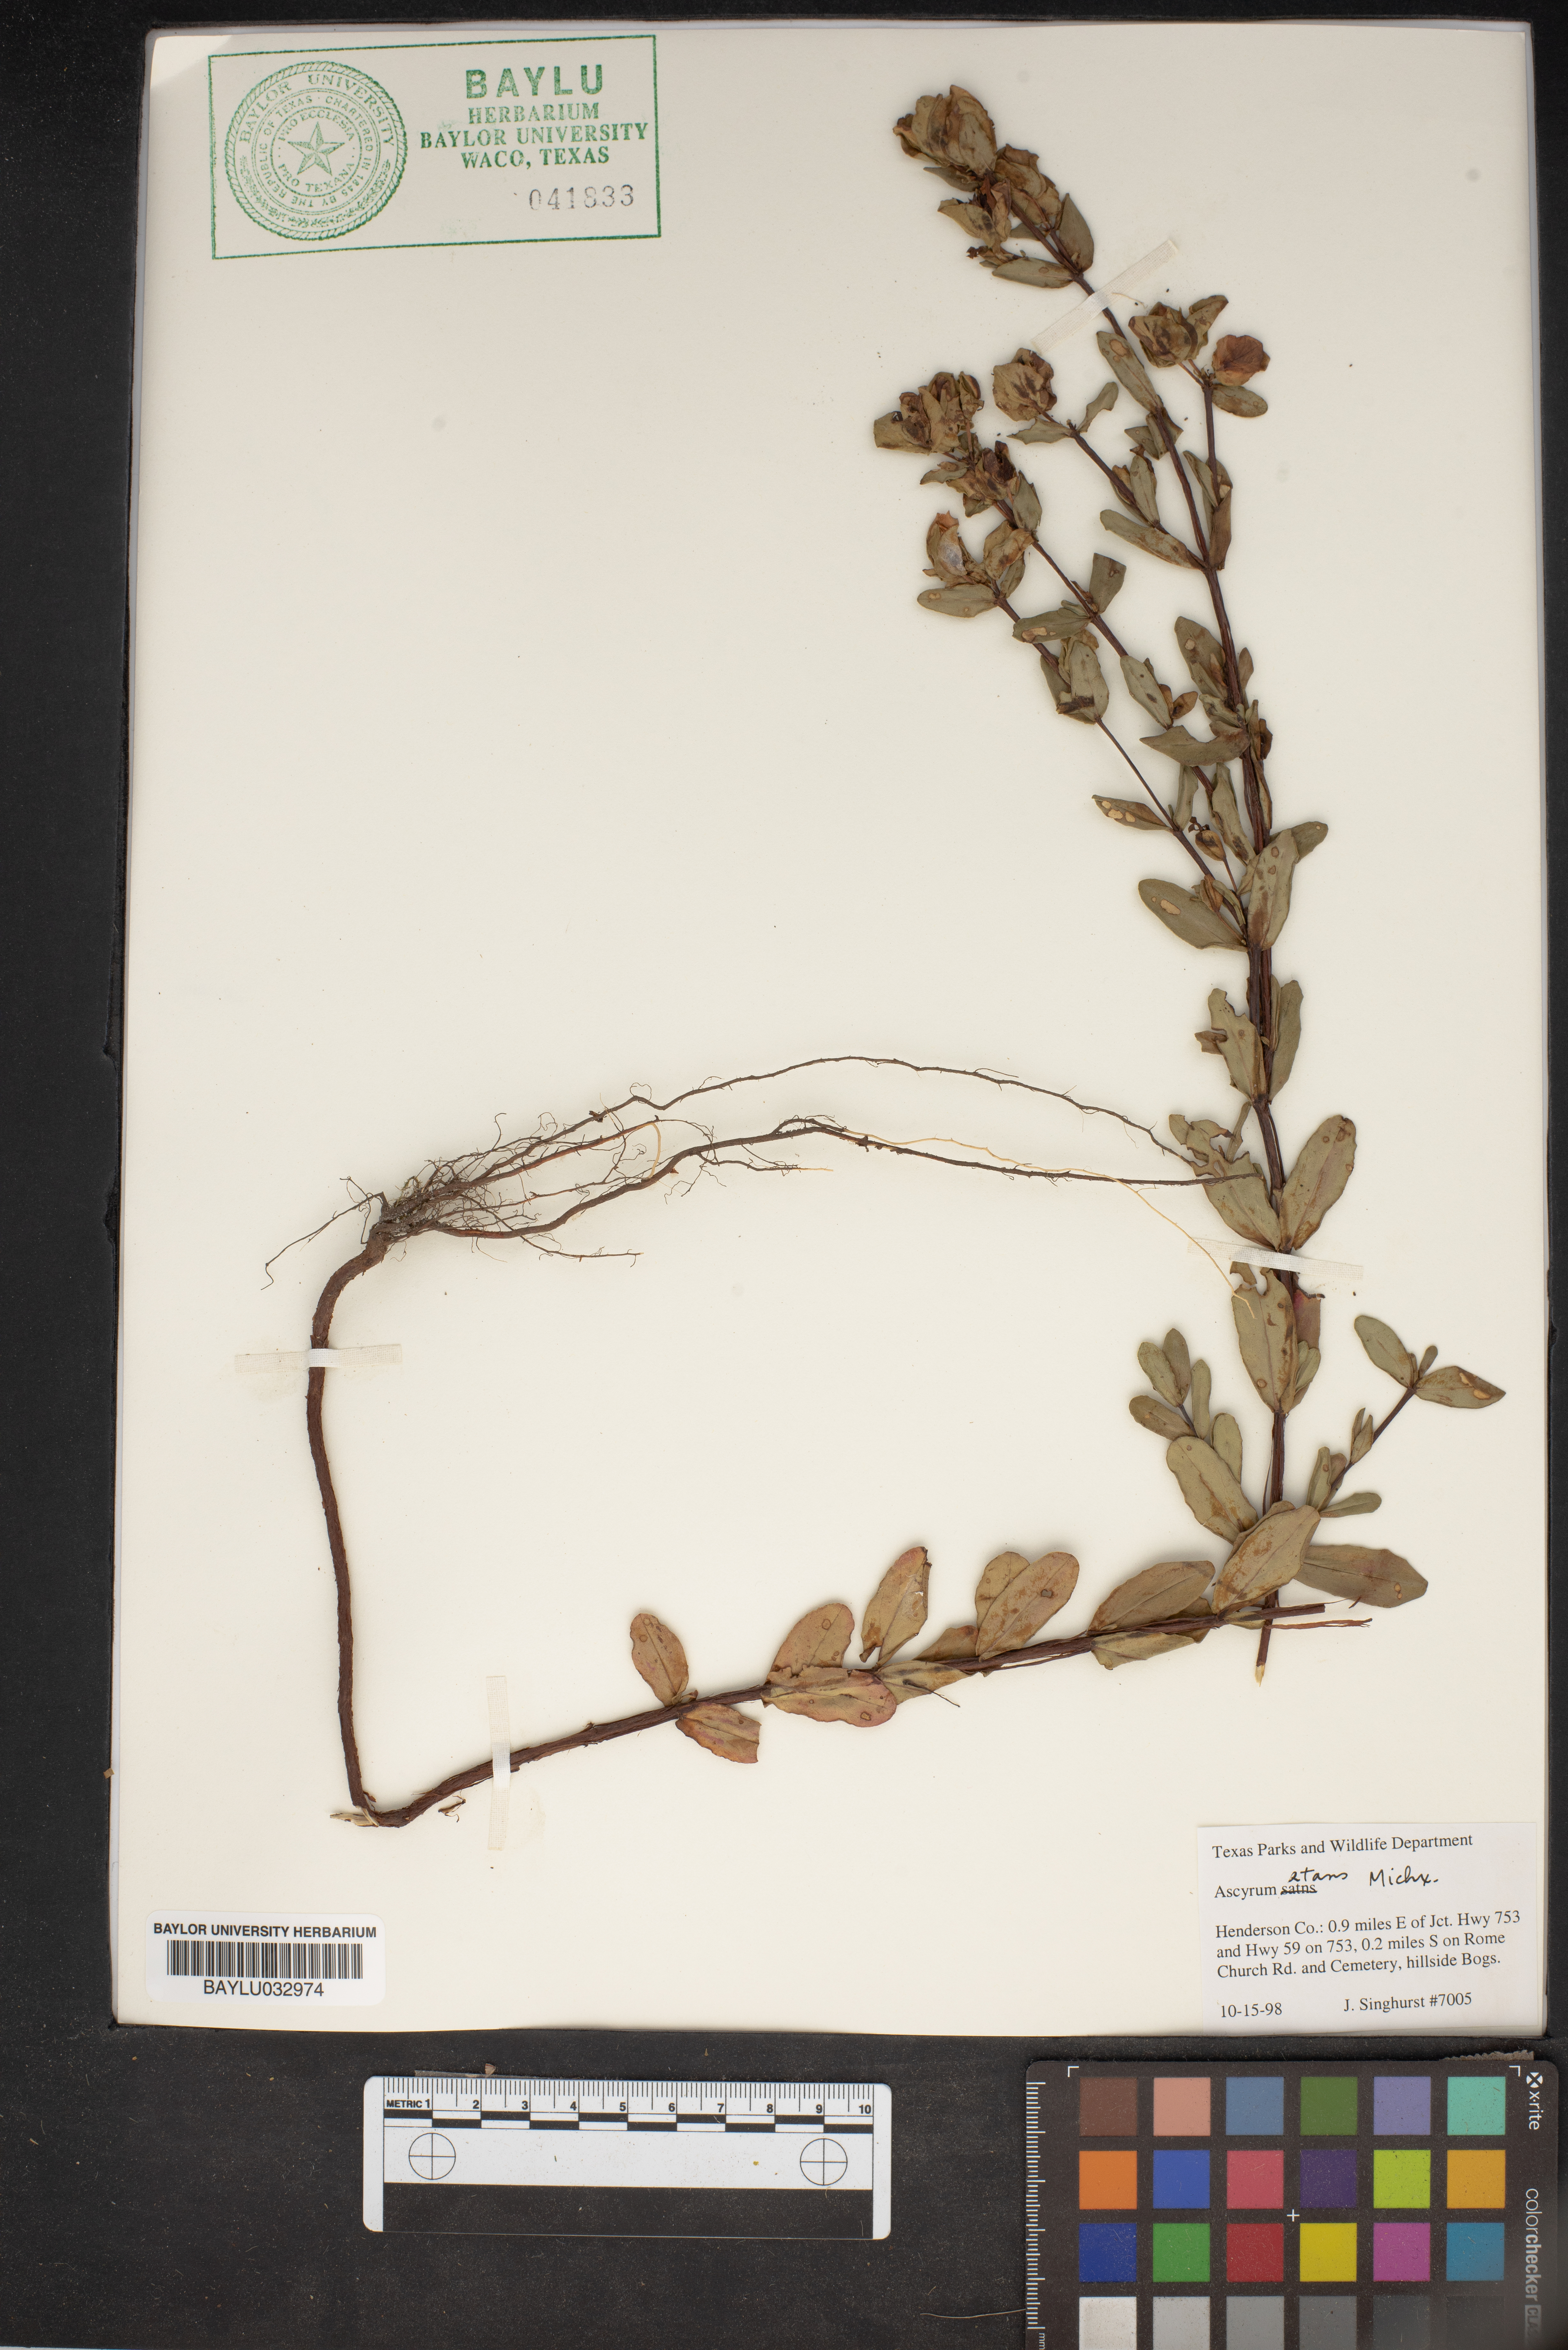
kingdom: Plantae
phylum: Tracheophyta
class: Magnoliopsida
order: Malpighiales
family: Hypericaceae
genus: Hypericum
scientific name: Hypericum crux-andreae
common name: St.-peter's-wort
